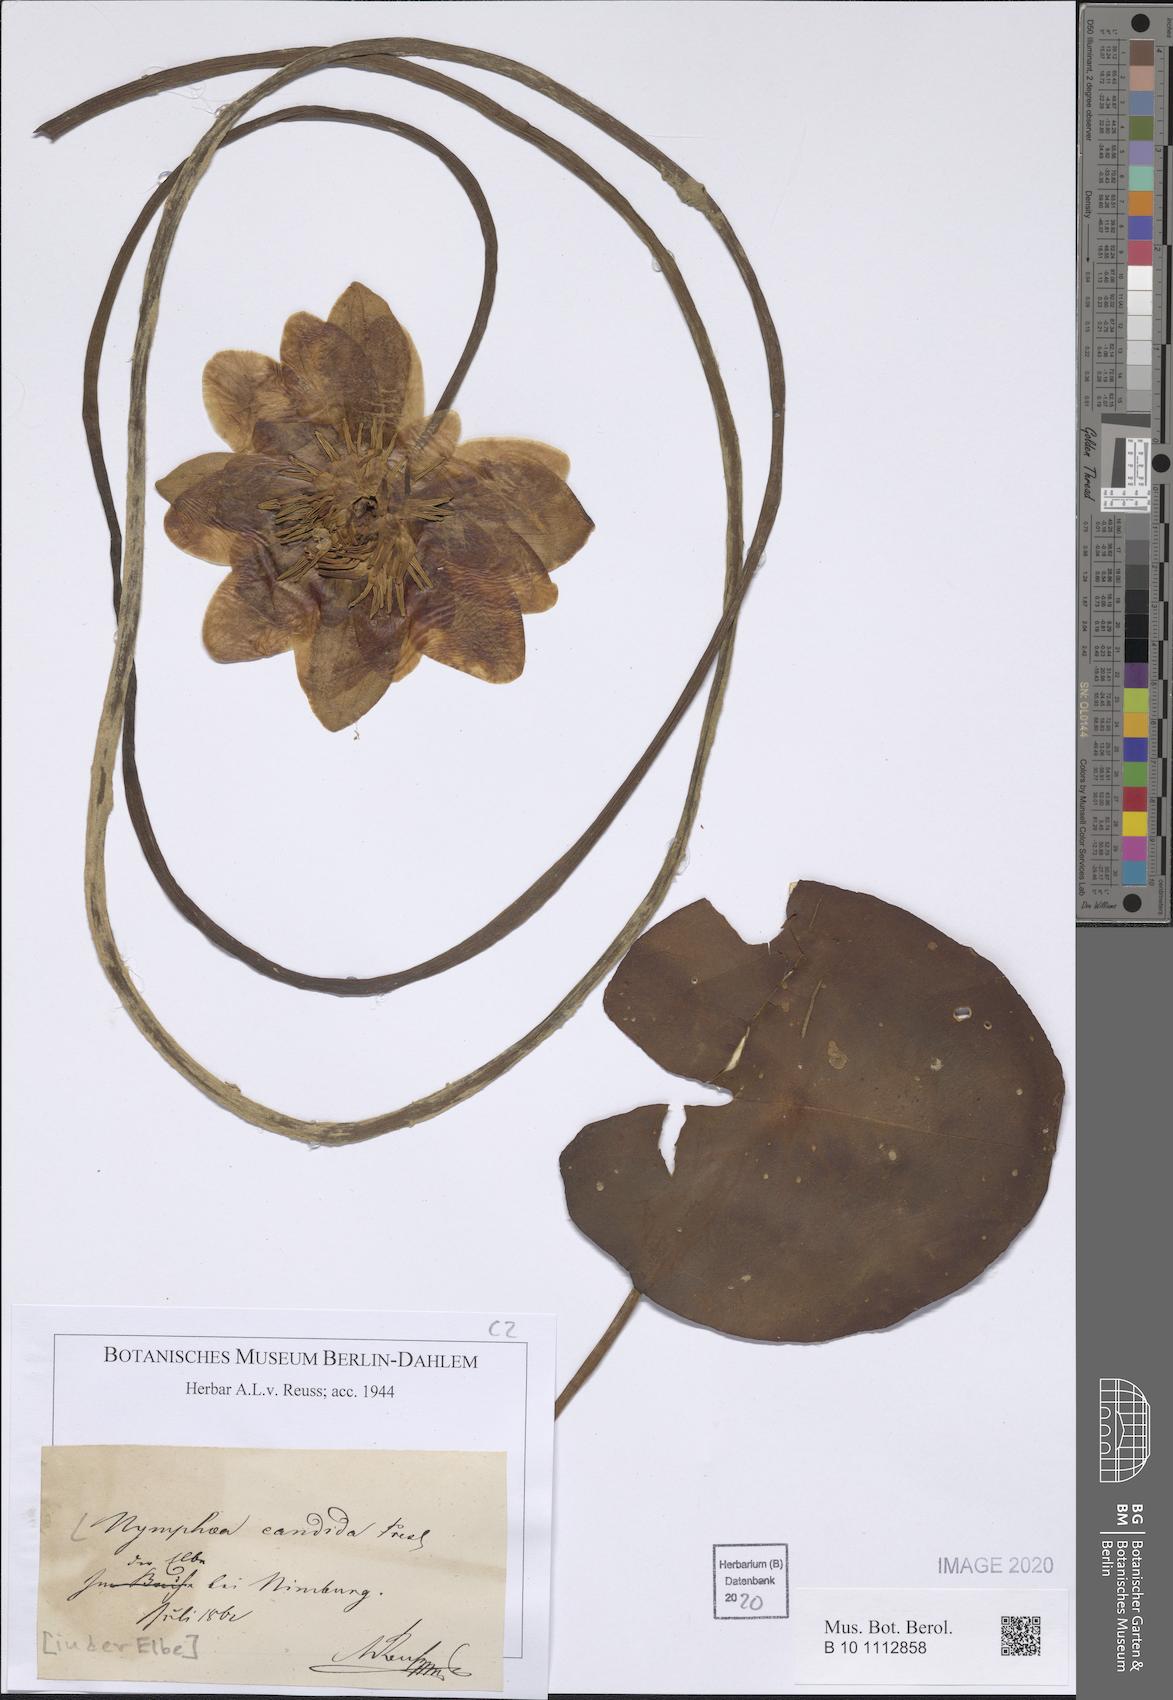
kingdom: Plantae
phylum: Tracheophyta
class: Magnoliopsida
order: Nymphaeales
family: Nymphaeaceae
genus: Nymphaea
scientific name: Nymphaea candida
